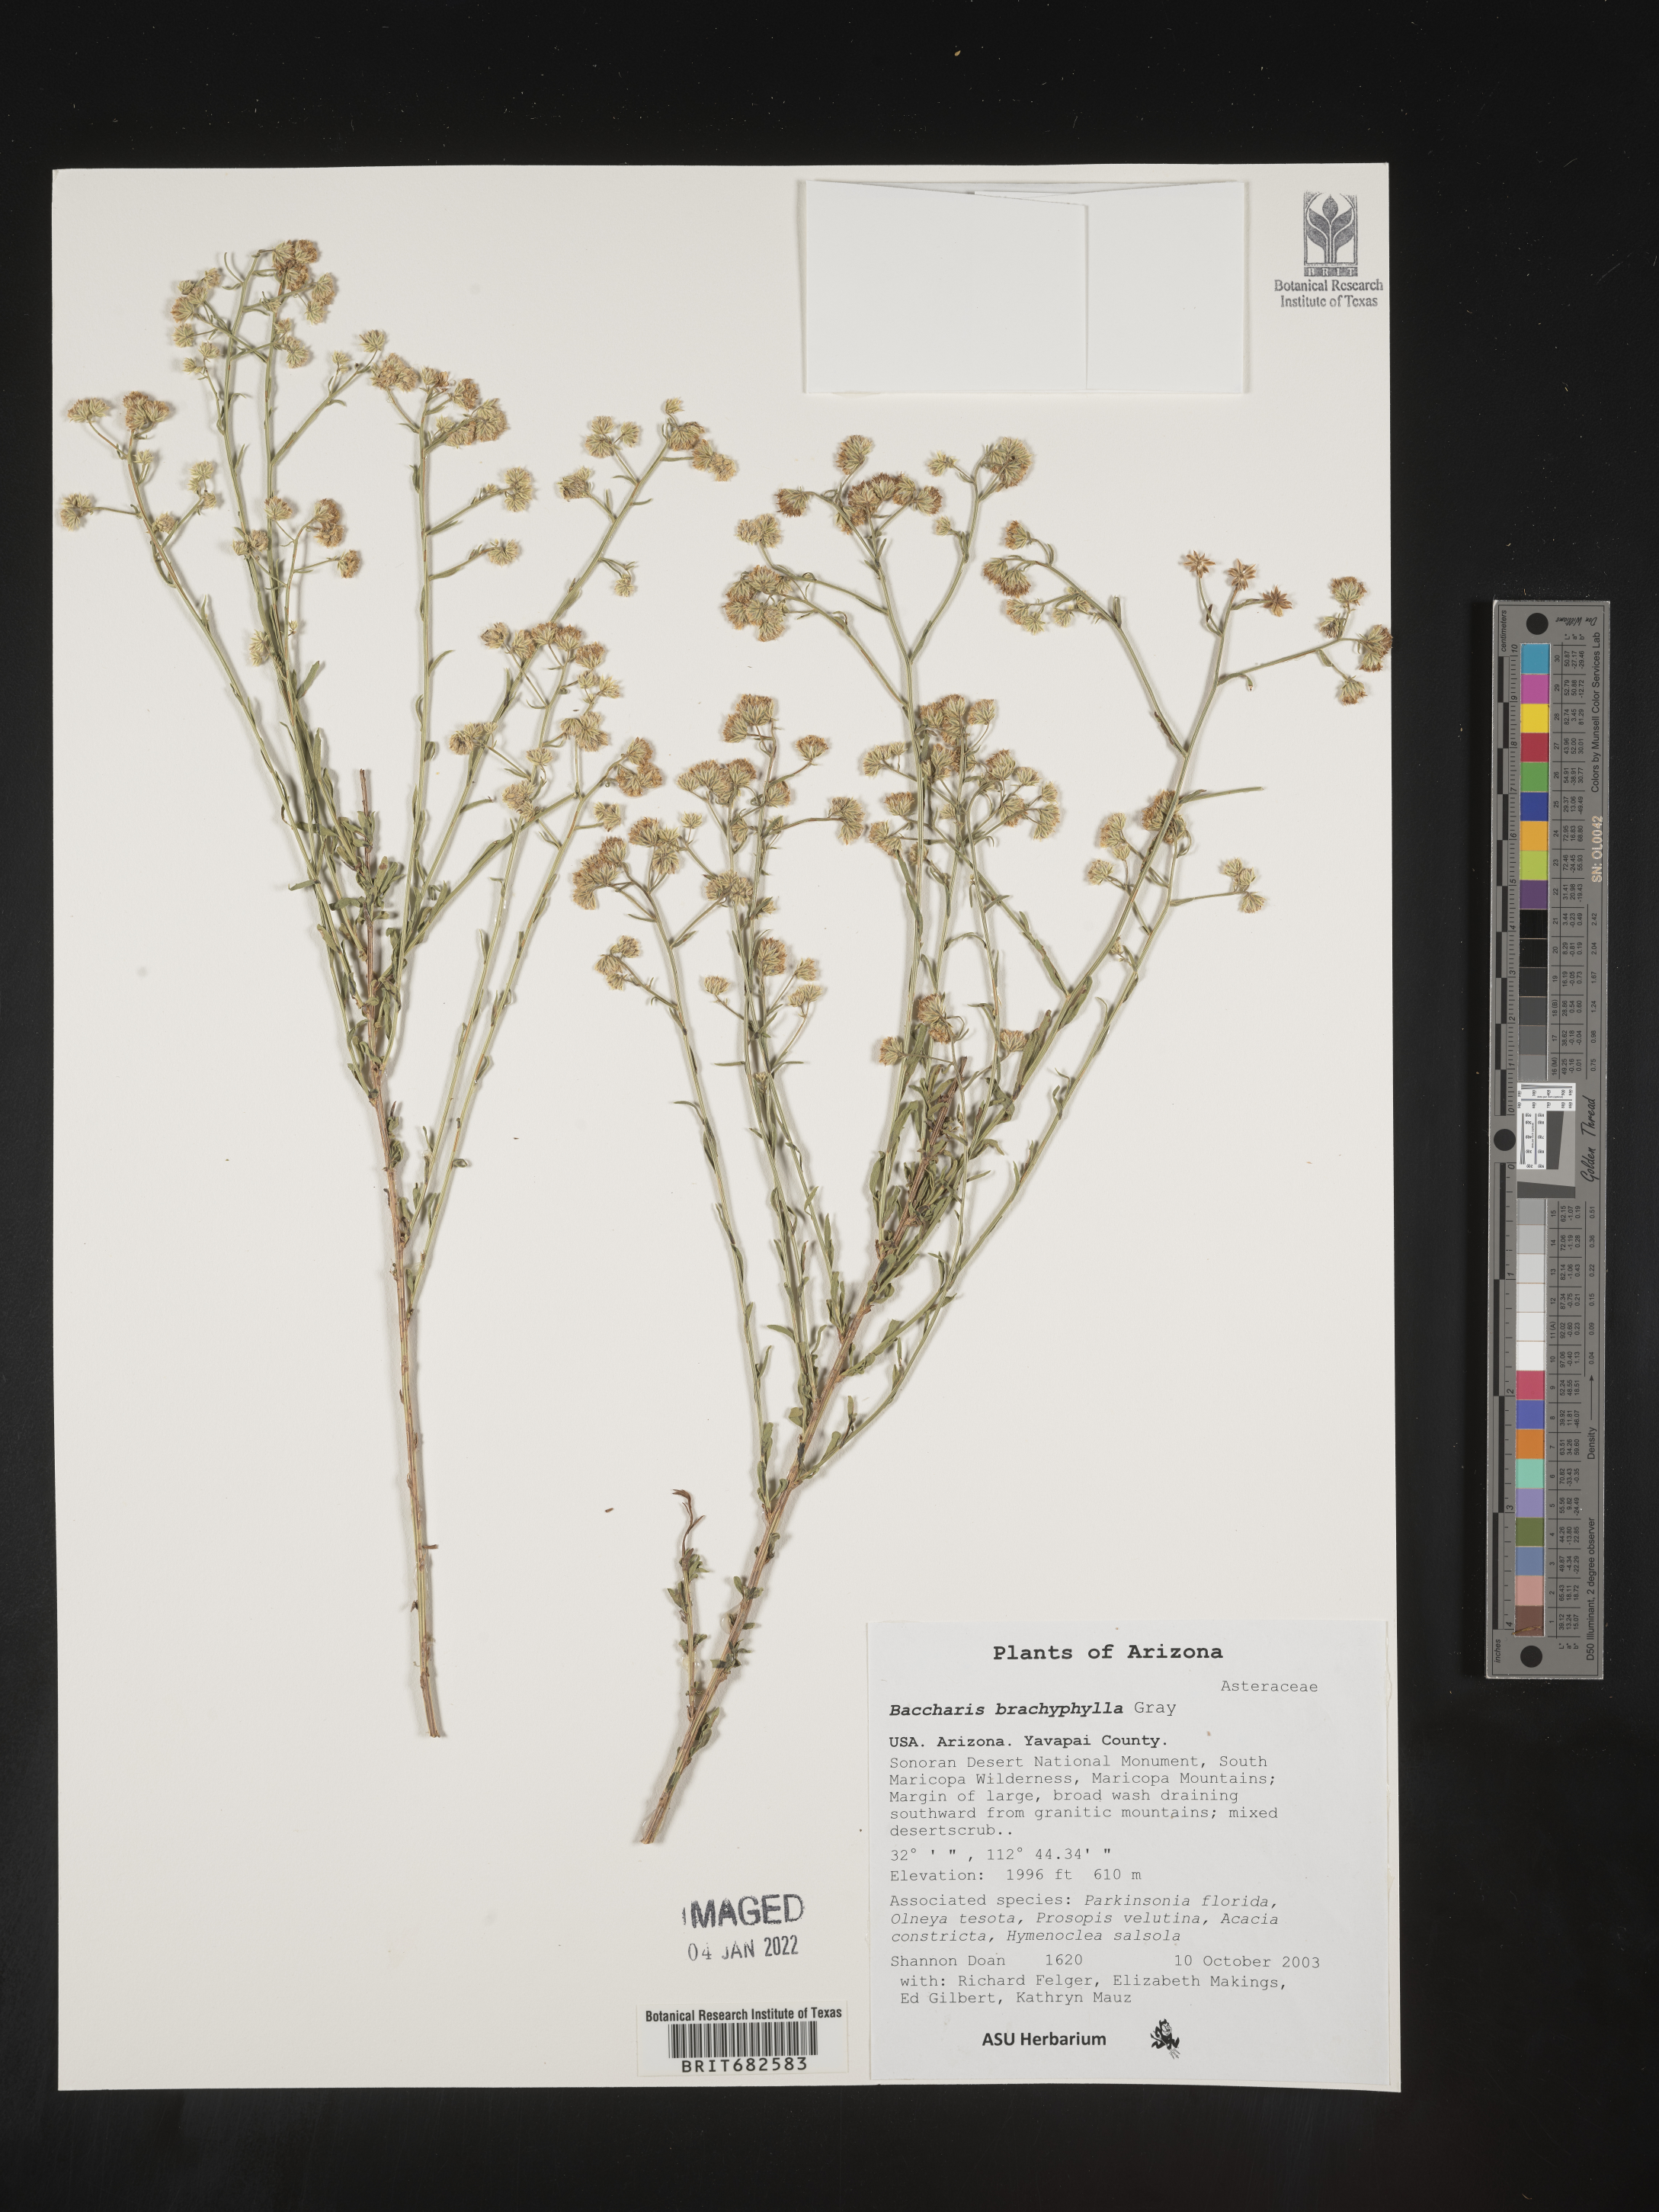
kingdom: Plantae
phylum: Tracheophyta
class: Magnoliopsida
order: Asterales
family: Asteraceae
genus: Baccharis
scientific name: Baccharis brachyphylla
